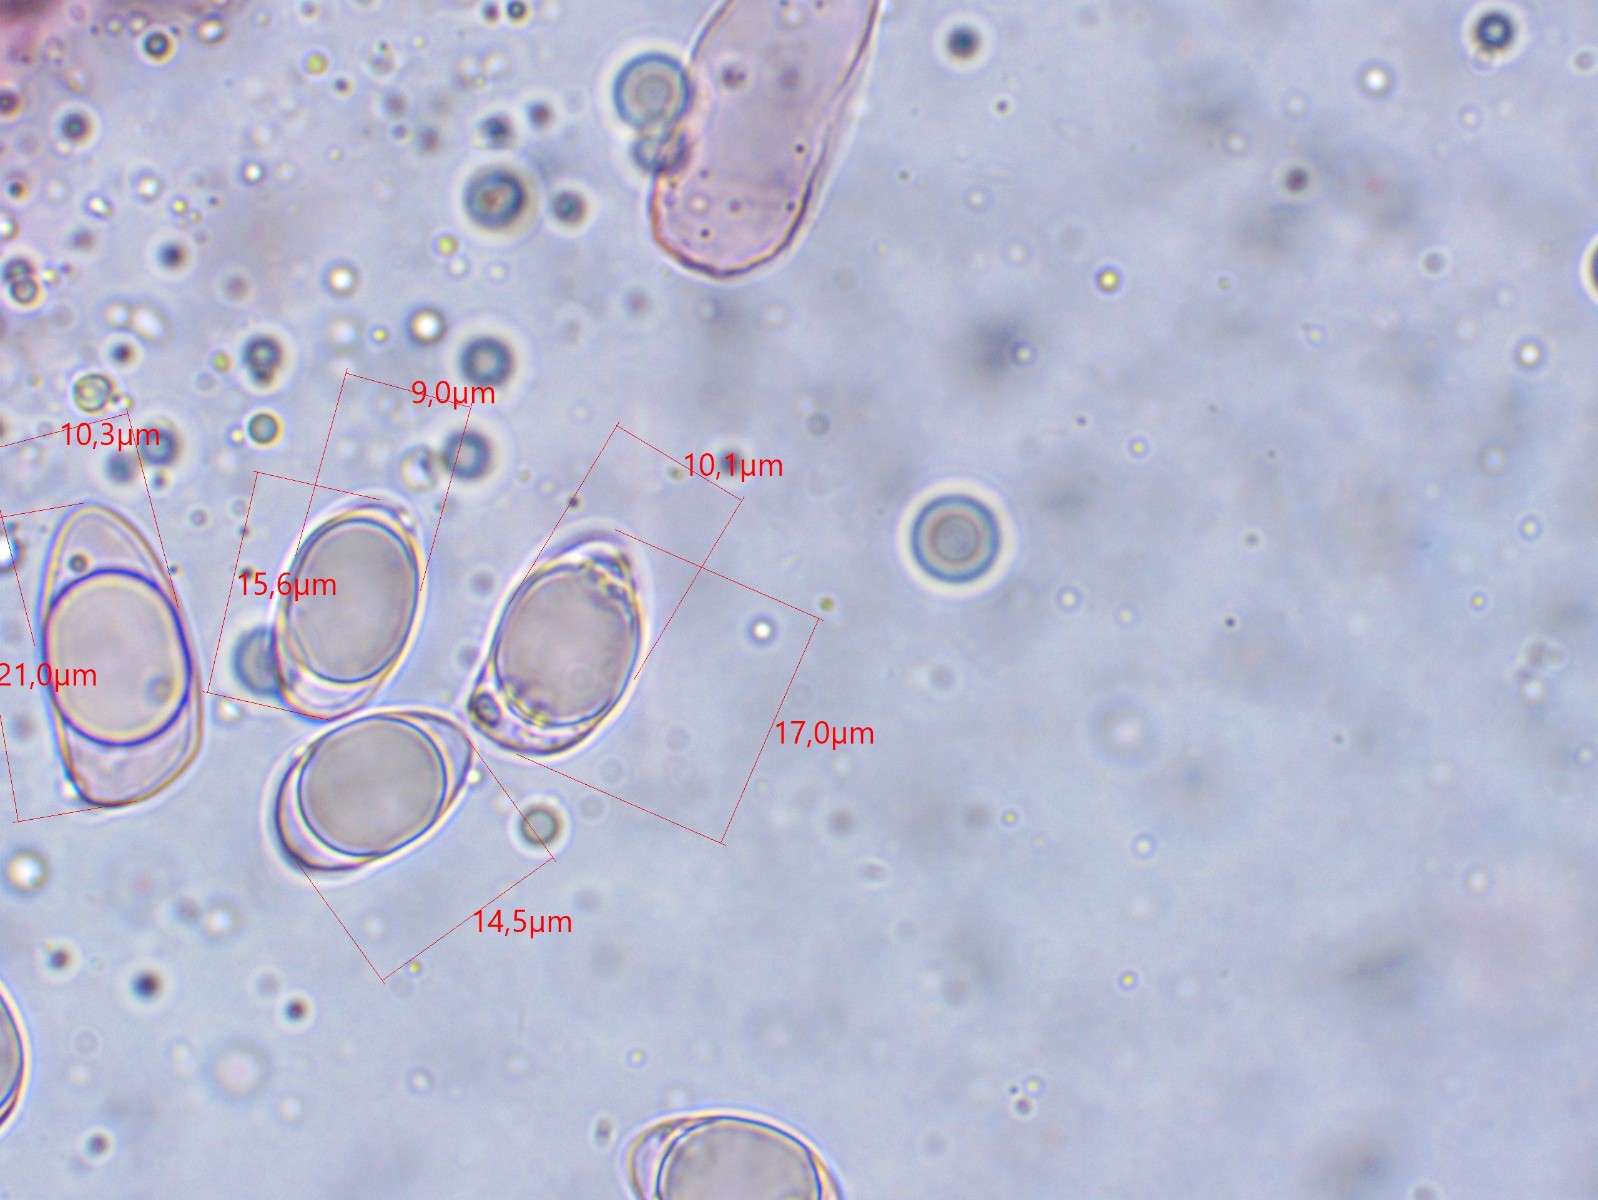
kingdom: Fungi
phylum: Basidiomycota
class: Agaricomycetes
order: Agaricales
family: Physalacriaceae
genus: Hymenopellis
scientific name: Hymenopellis radicata
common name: almindelig pælerodshat
